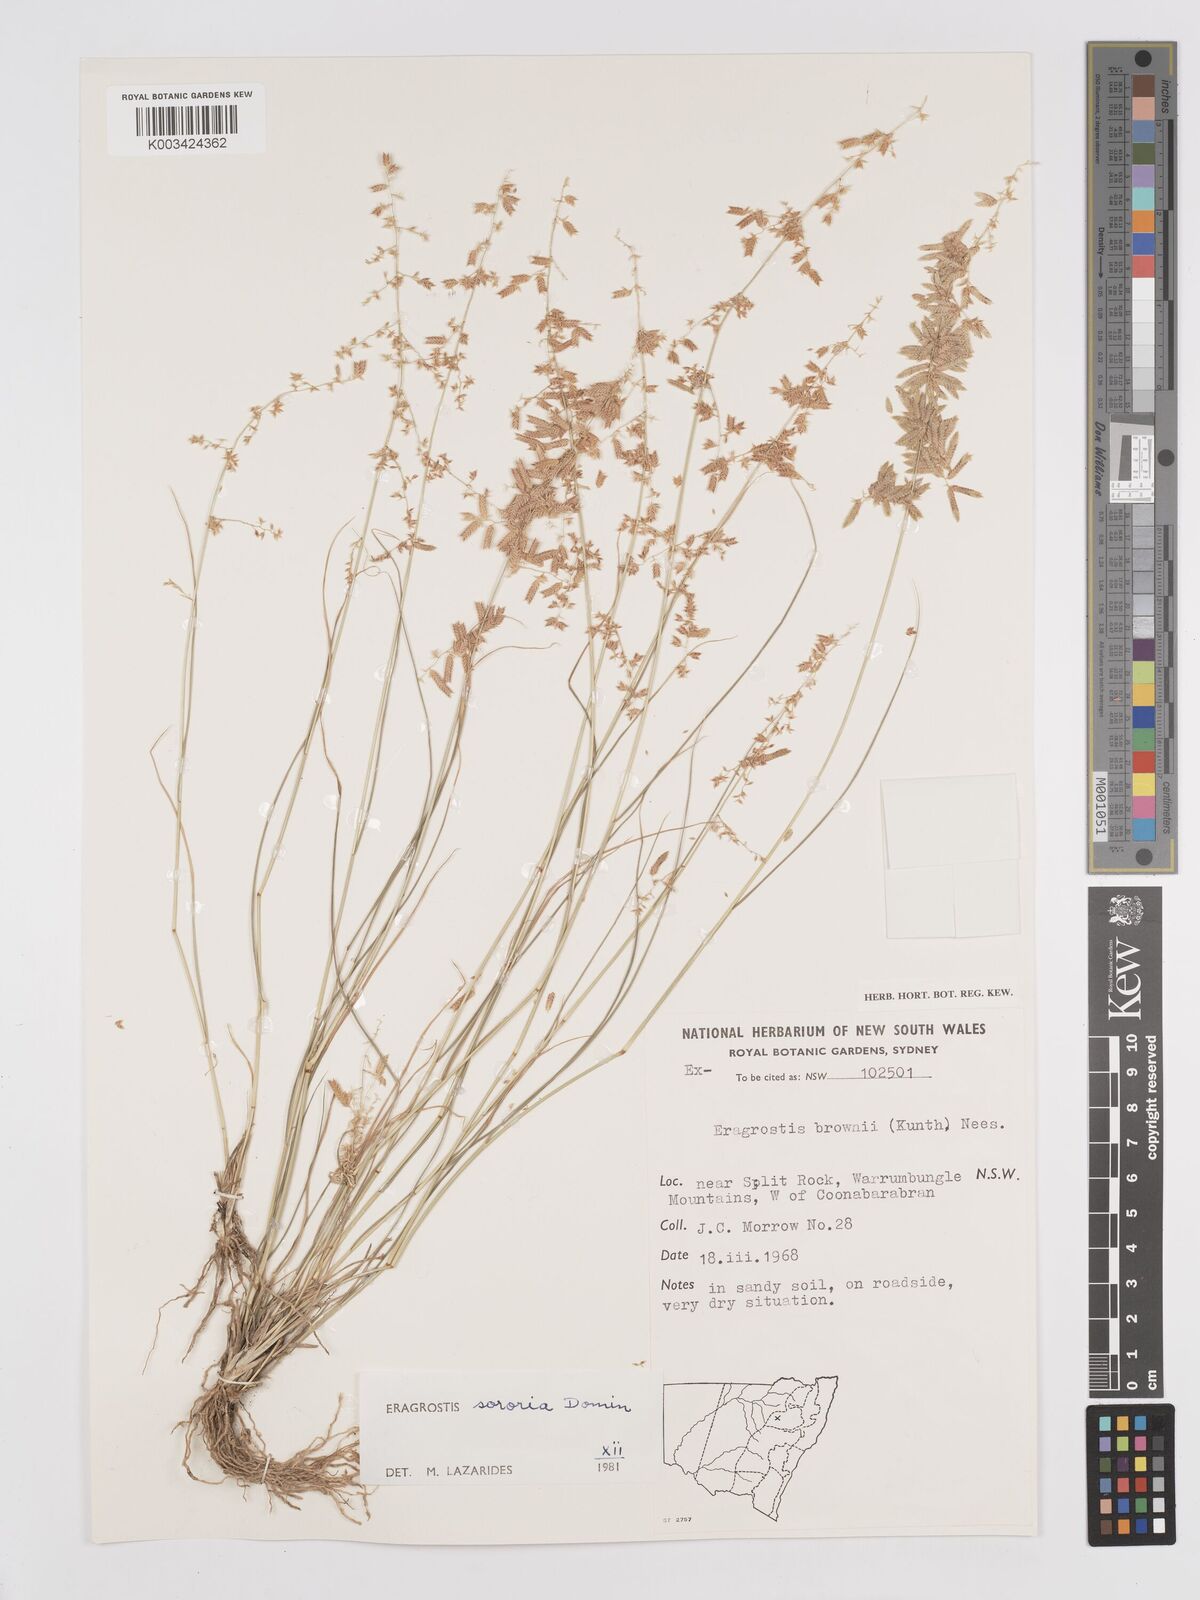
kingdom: Plantae
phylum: Tracheophyta
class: Liliopsida
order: Poales
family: Poaceae
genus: Eragrostis
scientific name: Eragrostis sororia
